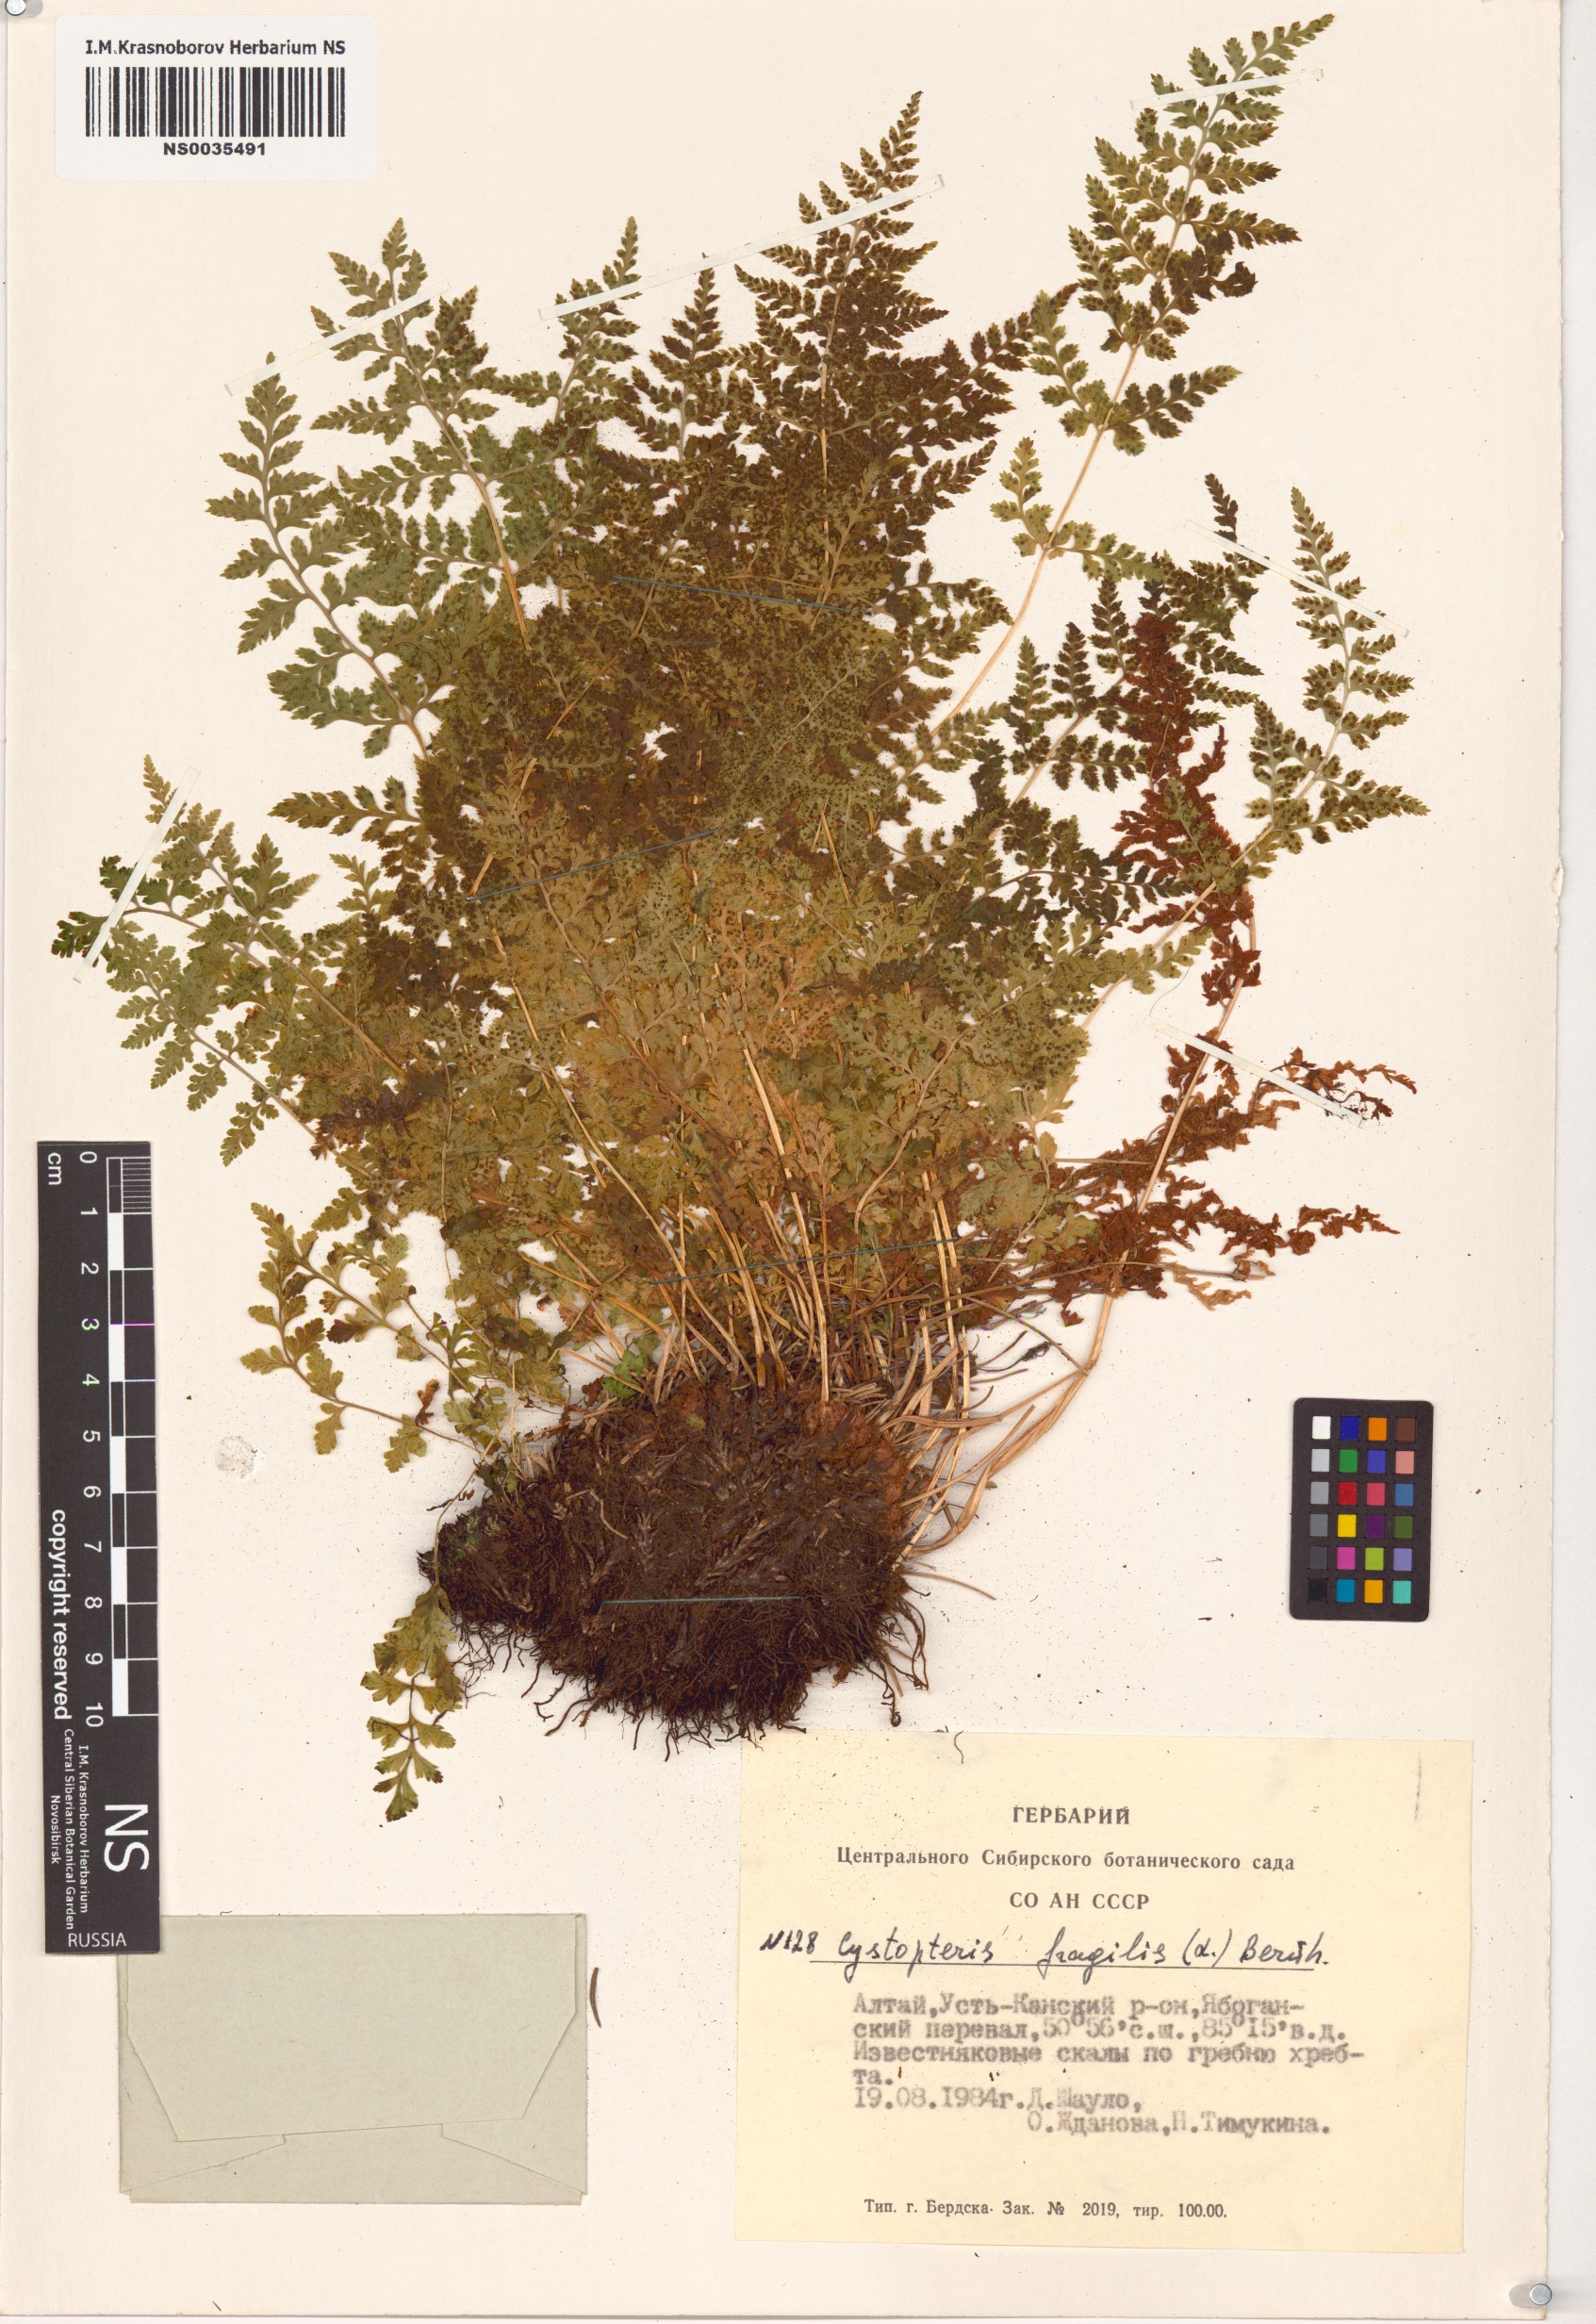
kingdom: Plantae
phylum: Tracheophyta
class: Polypodiopsida
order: Polypodiales
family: Cystopteridaceae
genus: Cystopteris
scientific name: Cystopteris fragilis
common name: Brittle bladder fern
